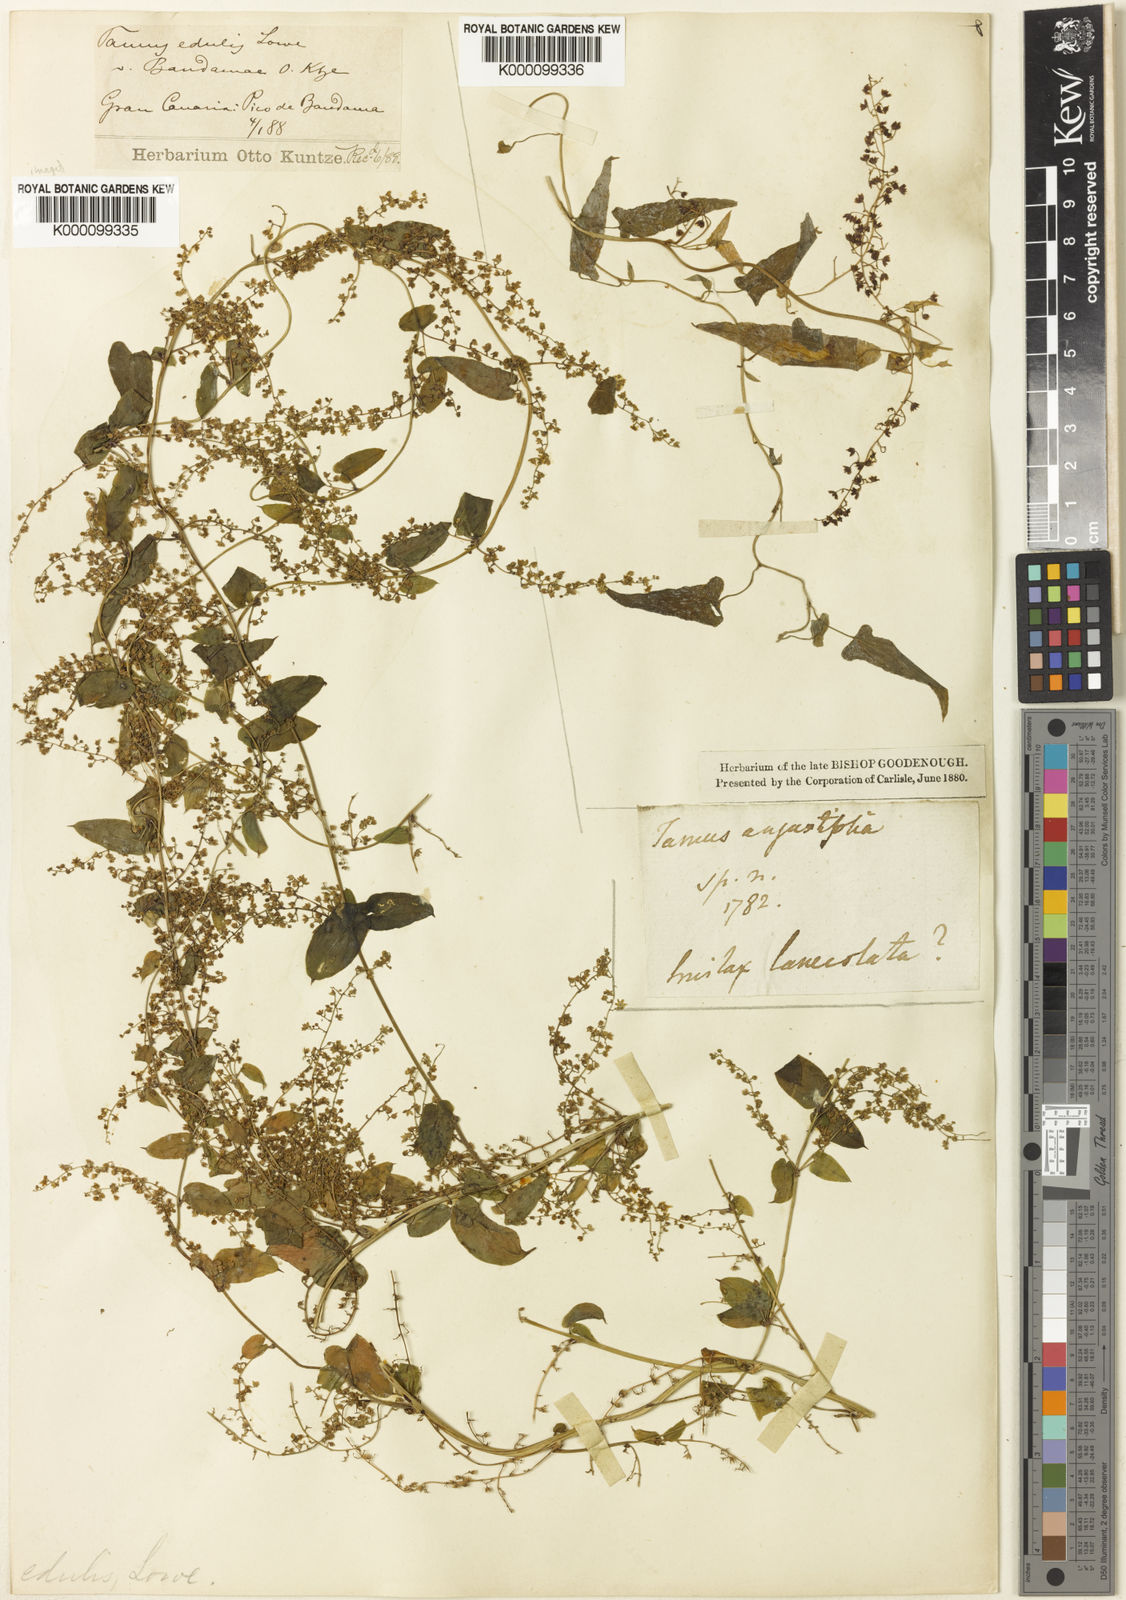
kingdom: Plantae
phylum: Tracheophyta
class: Liliopsida
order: Dioscoreales
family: Dioscoreaceae
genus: Dioscorea
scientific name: Dioscorea communis
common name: Black-bindweed
